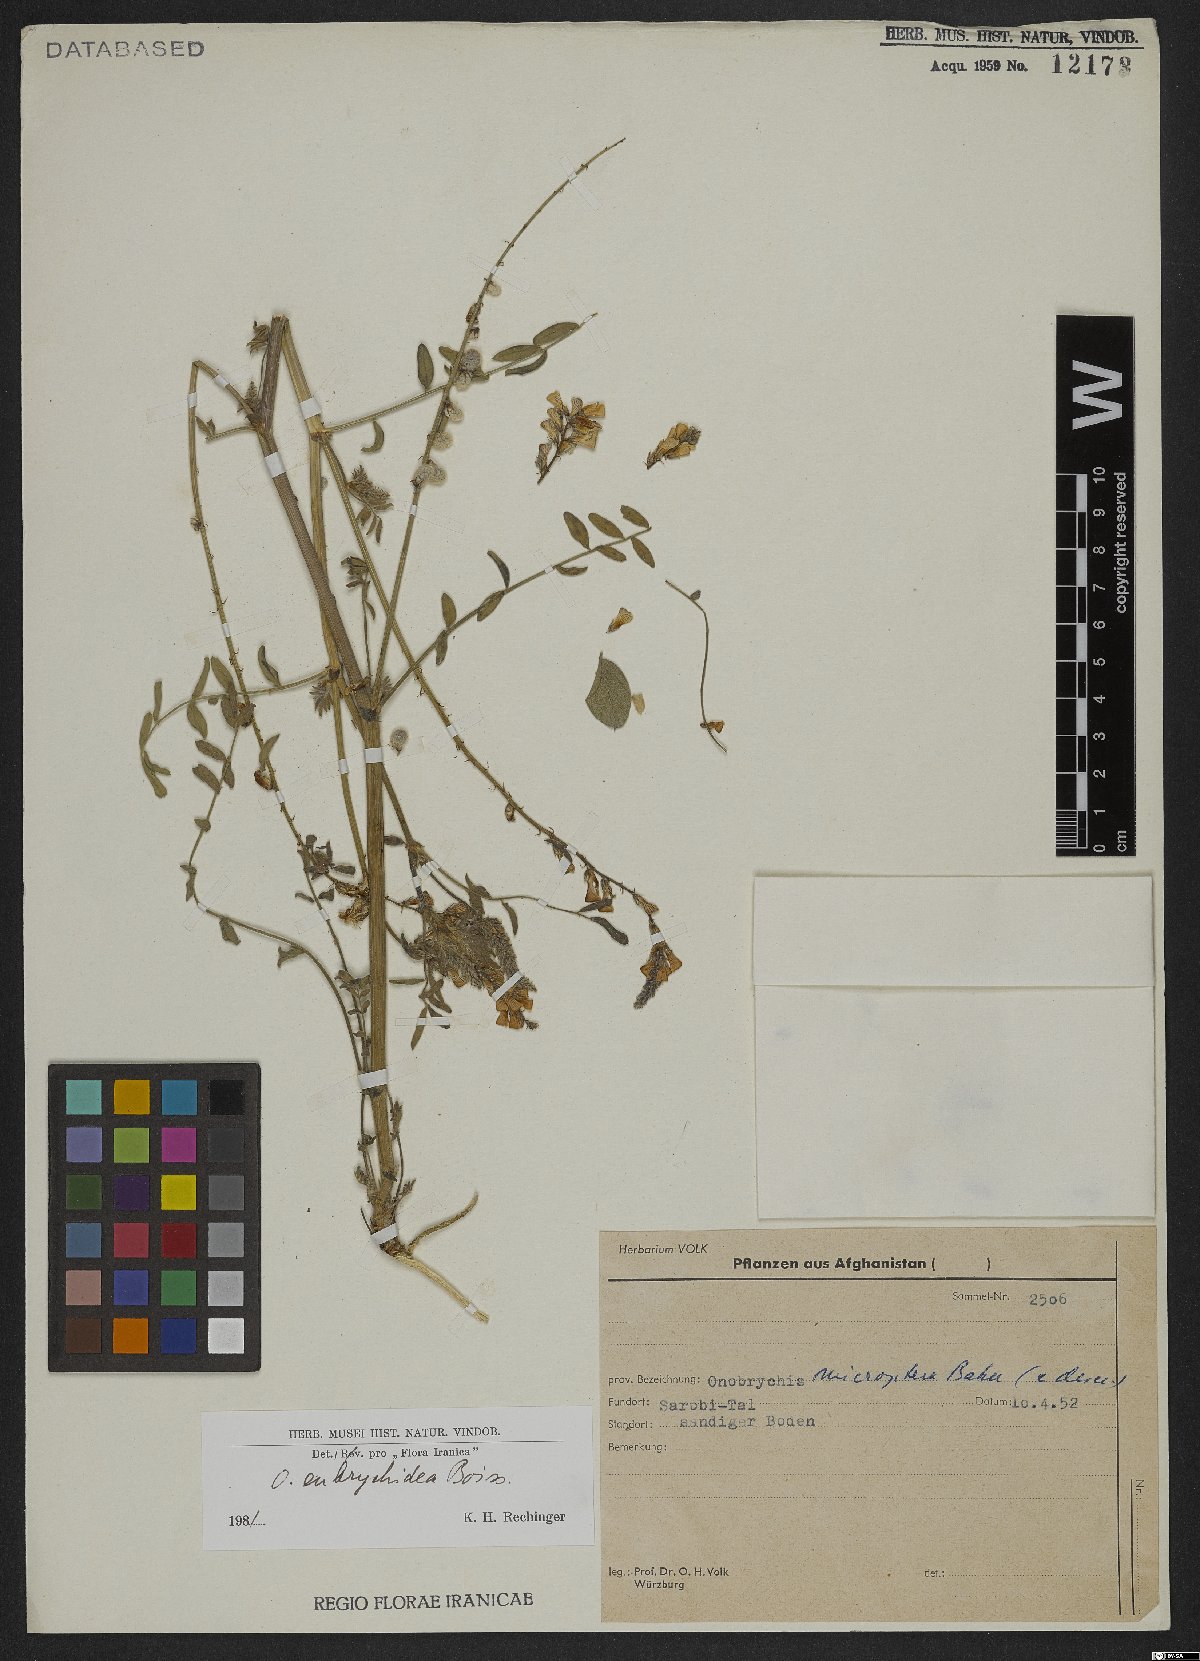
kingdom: Plantae
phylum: Tracheophyta
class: Magnoliopsida
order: Fabales
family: Fabaceae
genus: Onobrychis
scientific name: Onobrychis eubrychidea
